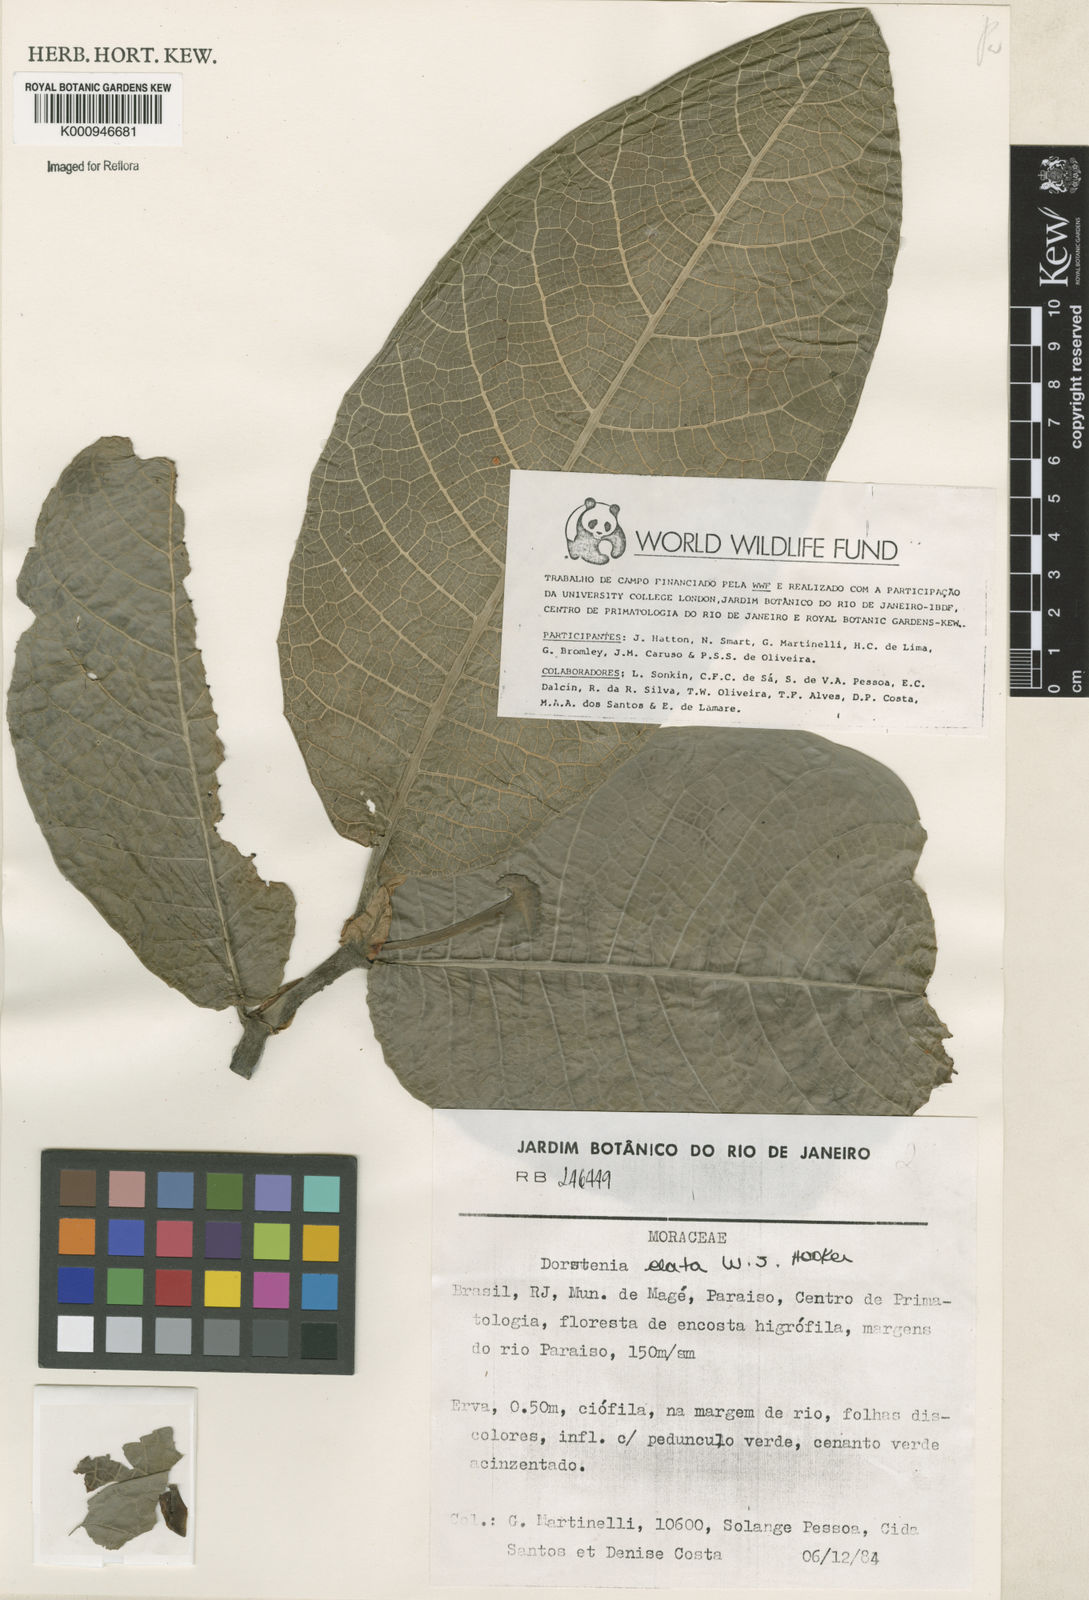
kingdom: Plantae
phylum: Tracheophyta
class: Magnoliopsida
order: Rosales
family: Moraceae
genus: Dorstenia
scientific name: Dorstenia
